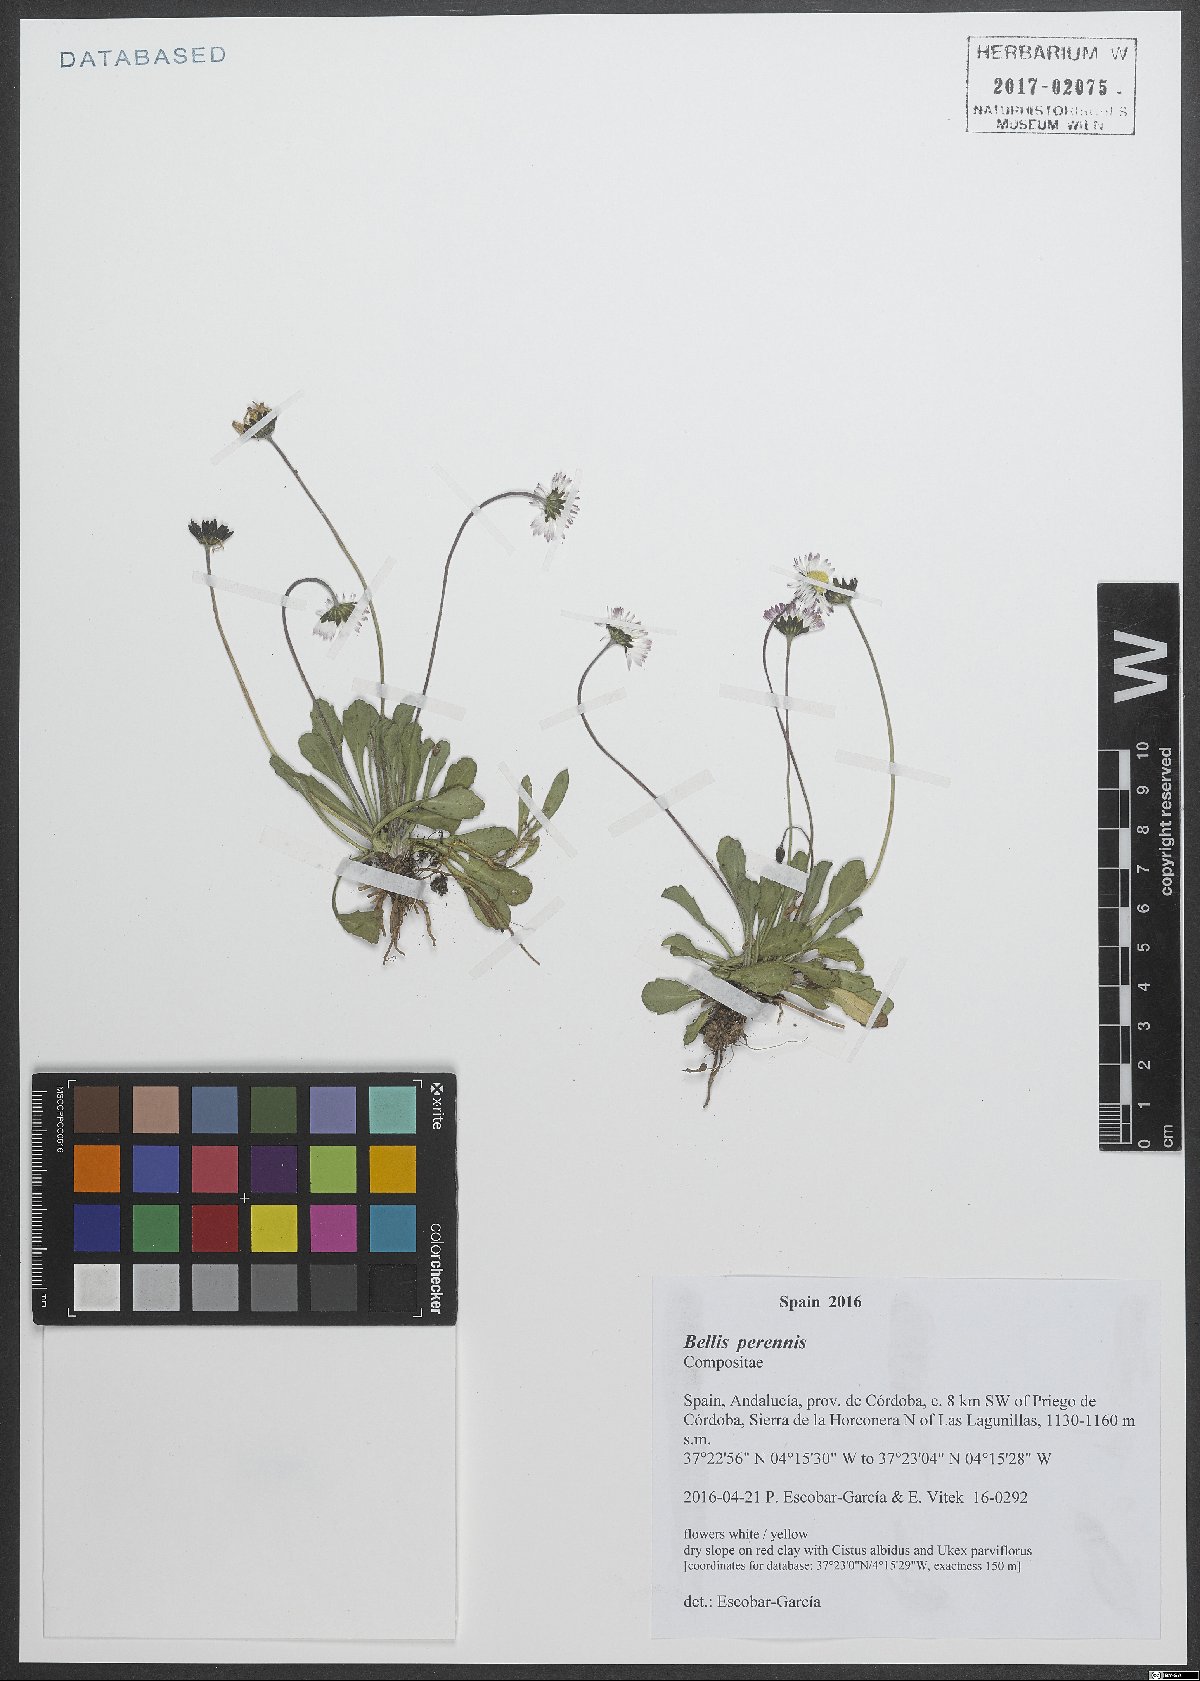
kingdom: Plantae
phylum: Tracheophyta
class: Magnoliopsida
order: Asterales
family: Asteraceae
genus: Bellis
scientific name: Bellis perennis
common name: Lawndaisy
